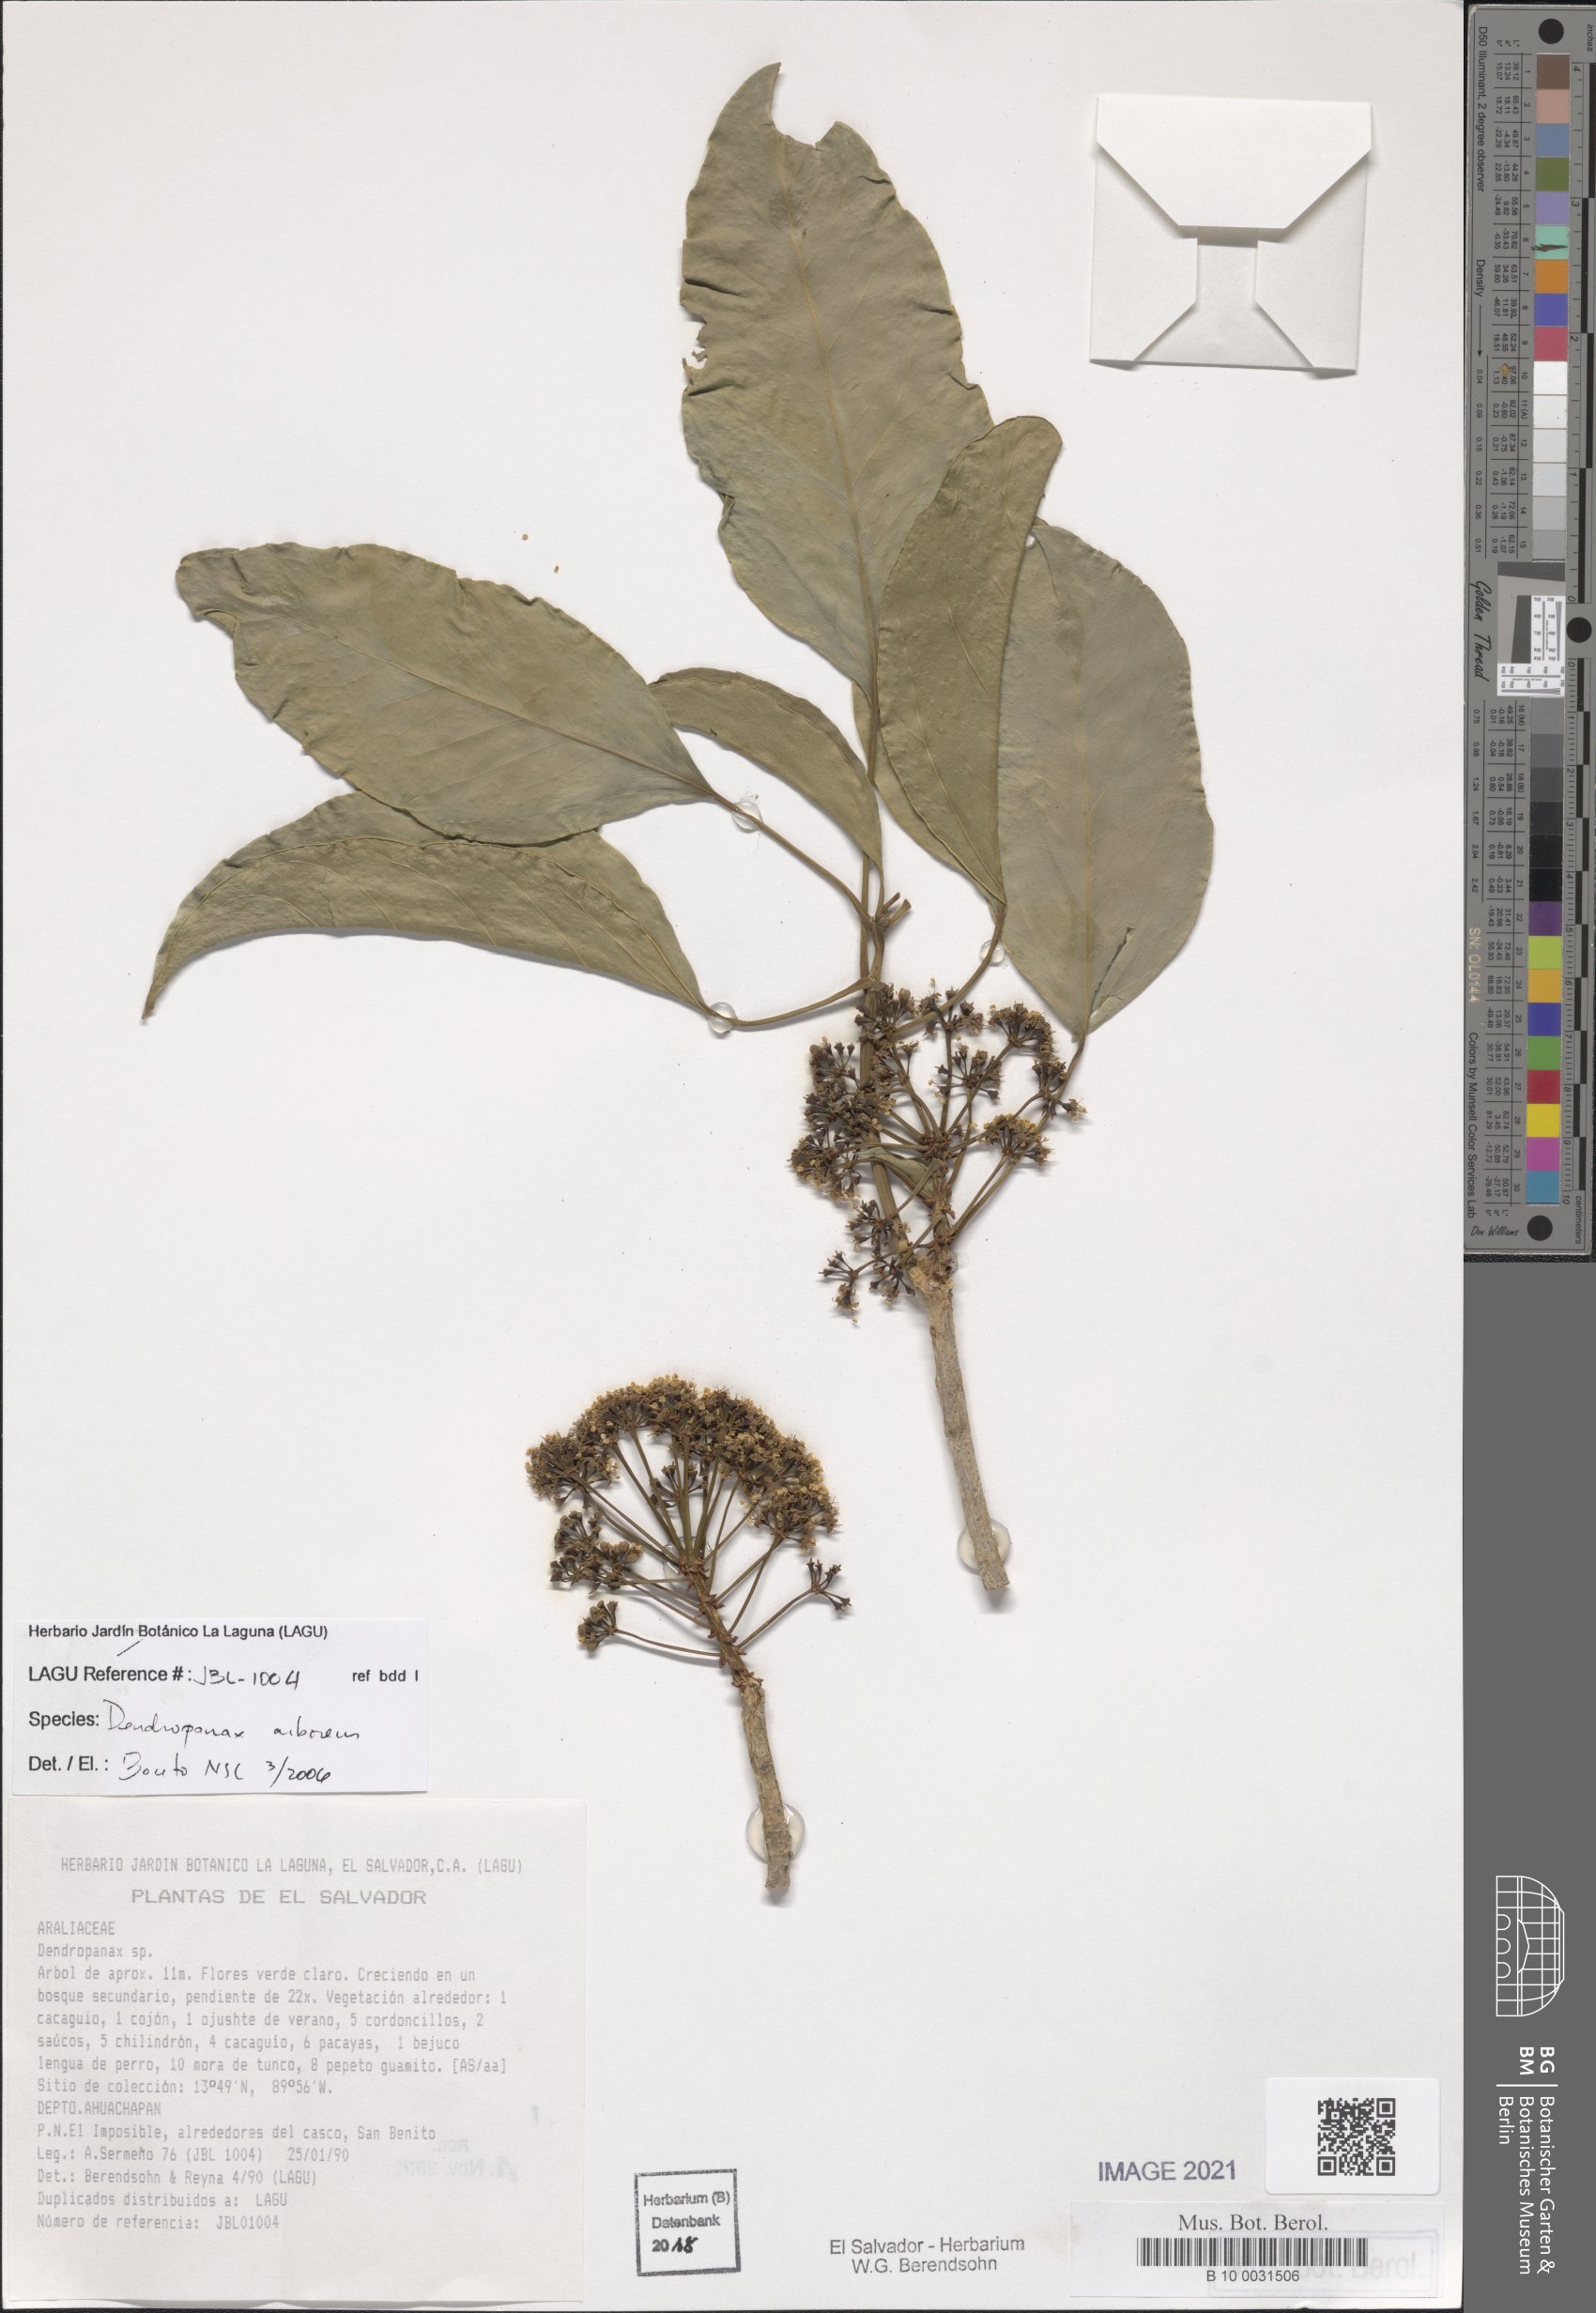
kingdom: Plantae
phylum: Tracheophyta
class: Magnoliopsida
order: Apiales
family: Araliaceae
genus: Dendropanax
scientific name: Dendropanax arboreus
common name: Potato-wood
